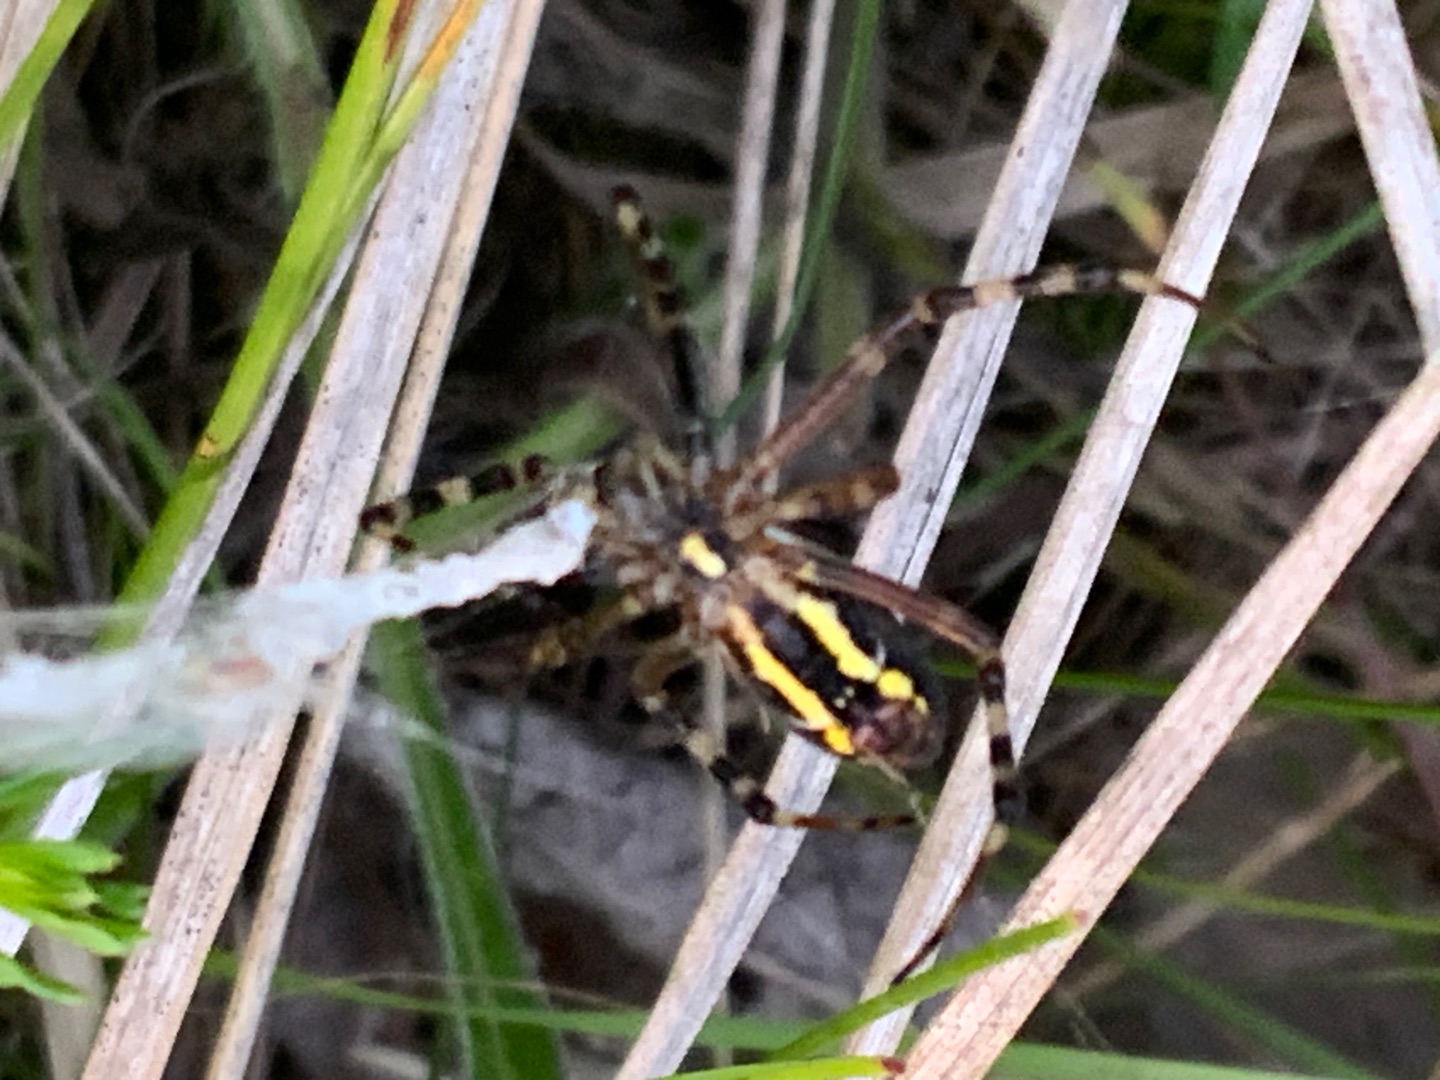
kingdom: Animalia
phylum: Arthropoda
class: Arachnida
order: Araneae
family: Araneidae
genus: Argiope
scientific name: Argiope bruennichi
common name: Hvepseedderkop
